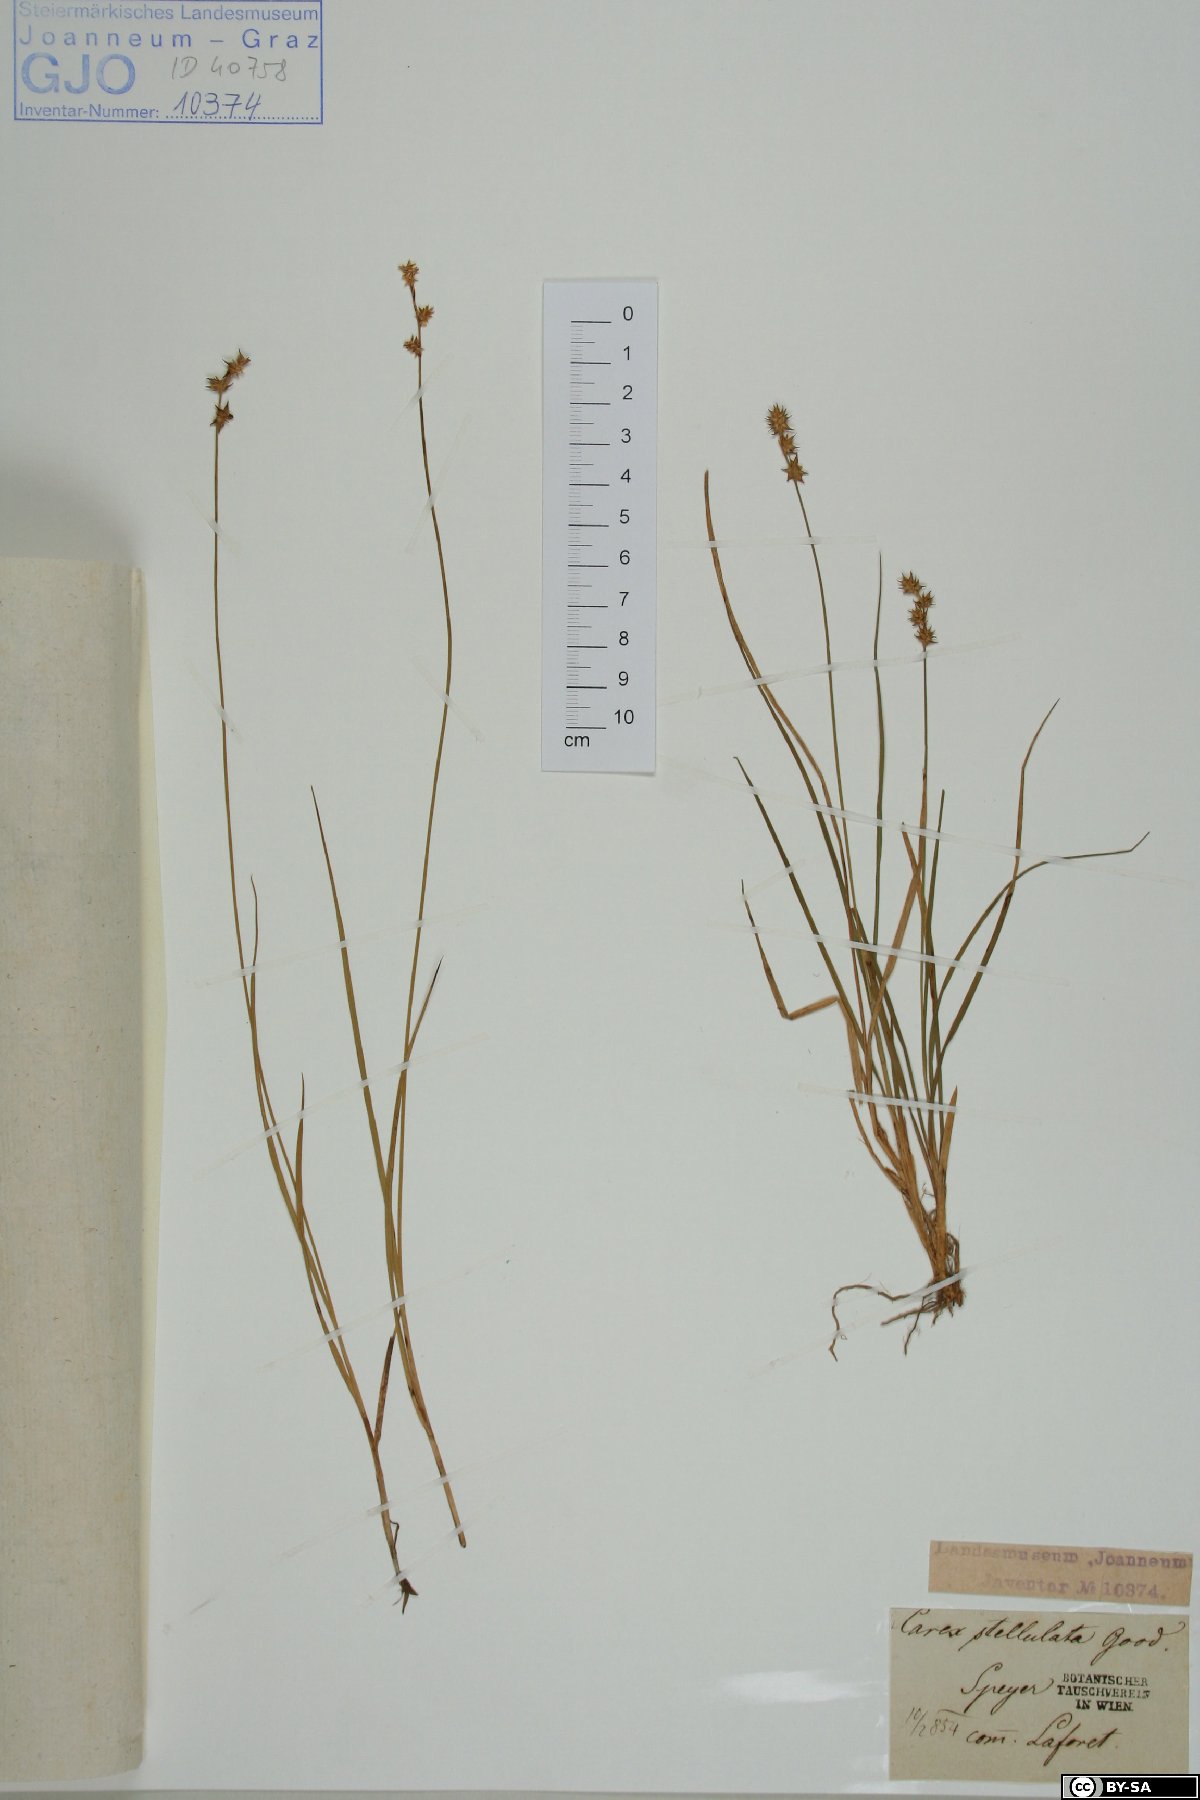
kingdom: Plantae
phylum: Tracheophyta
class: Liliopsida
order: Poales
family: Cyperaceae
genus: Carex
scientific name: Carex echinata
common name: Star sedge
